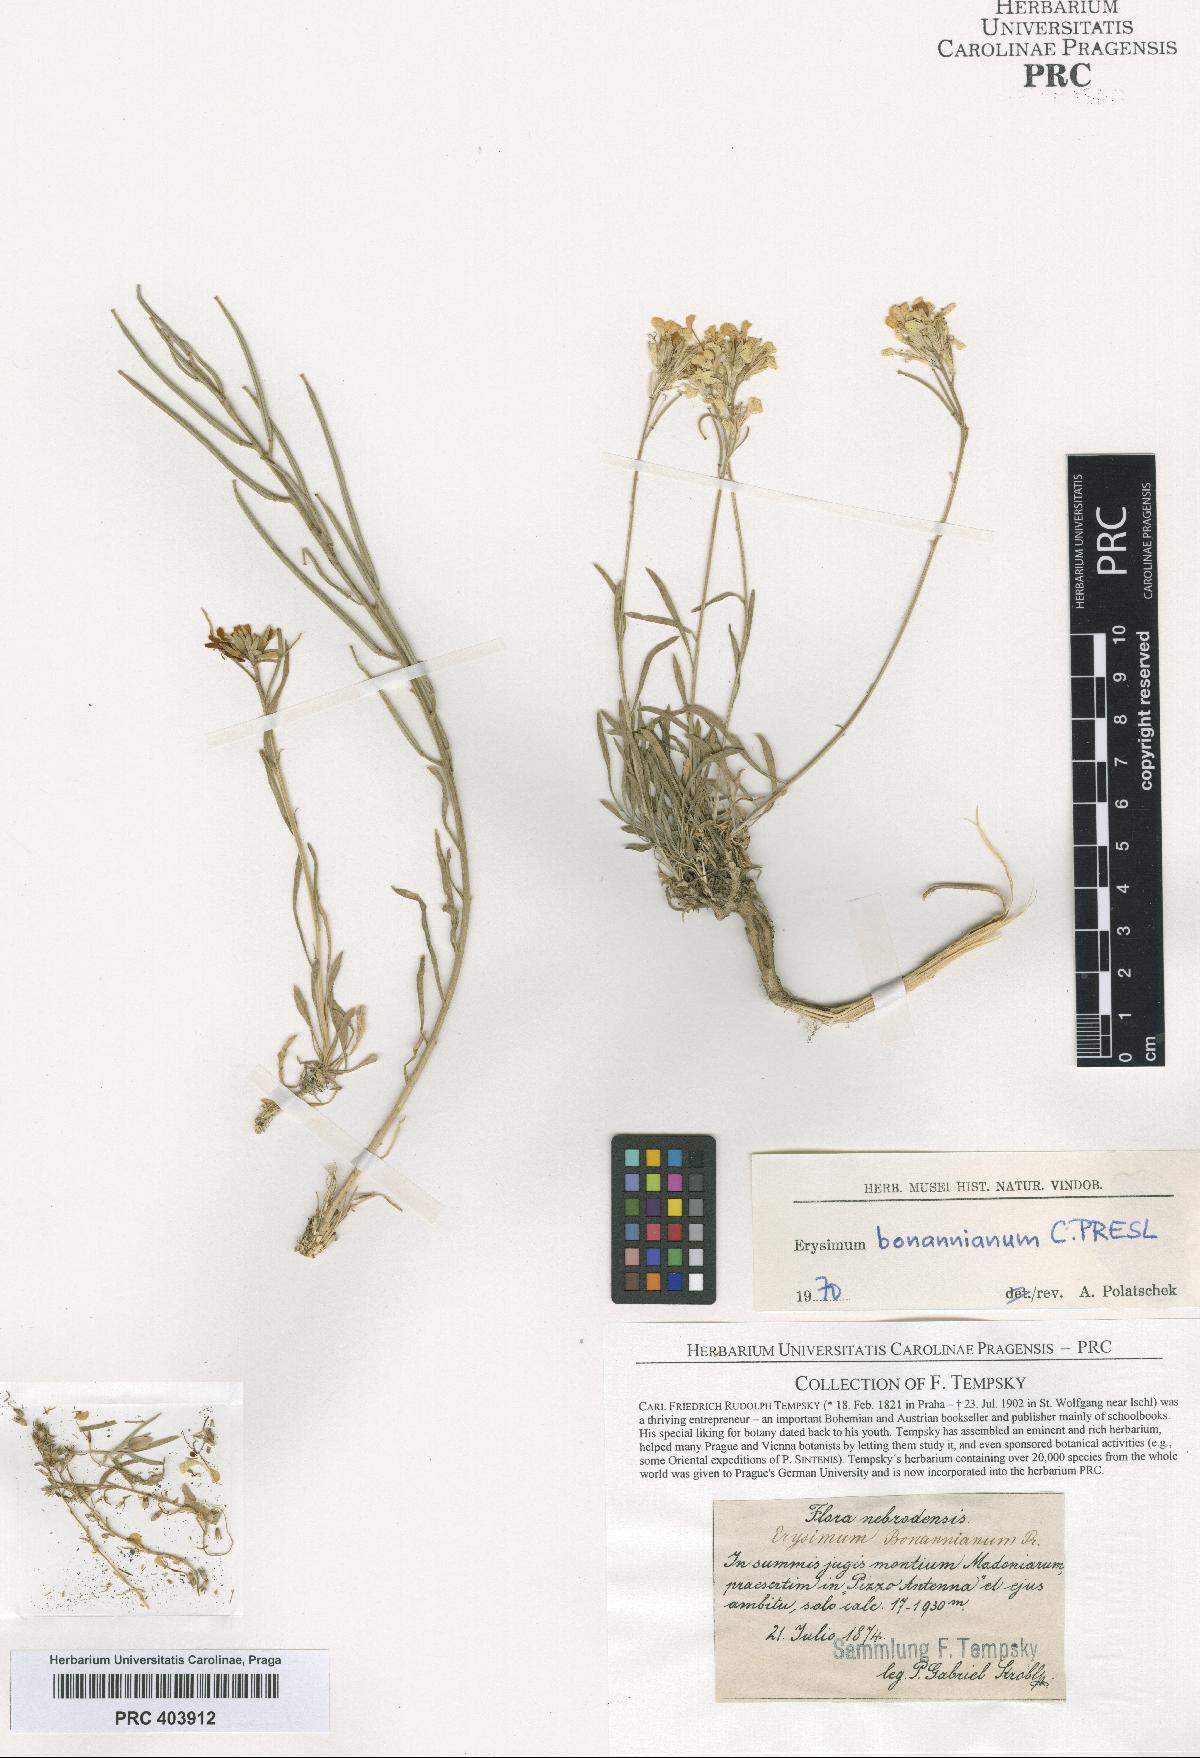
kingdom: Plantae
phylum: Tracheophyta
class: Magnoliopsida
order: Brassicales
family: Brassicaceae
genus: Erysimum
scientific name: Erysimum bonannianum
